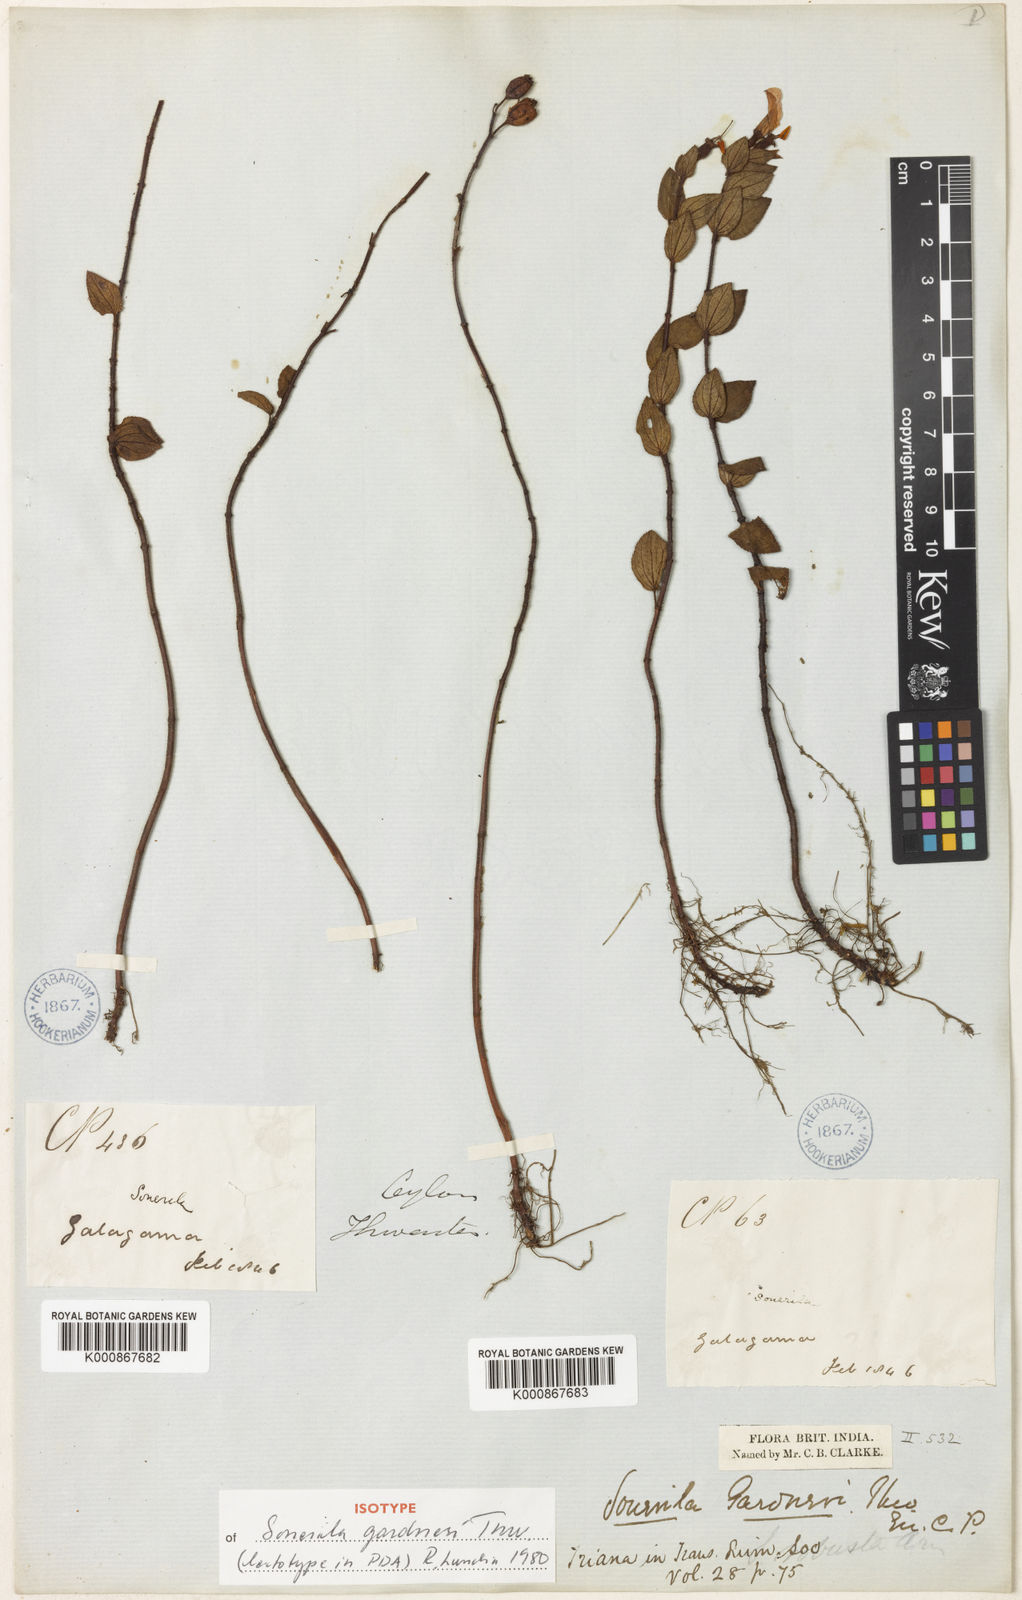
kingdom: Plantae
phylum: Tracheophyta
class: Magnoliopsida
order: Myrtales
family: Melastomataceae
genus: Sonerila
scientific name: Sonerila gardneri
